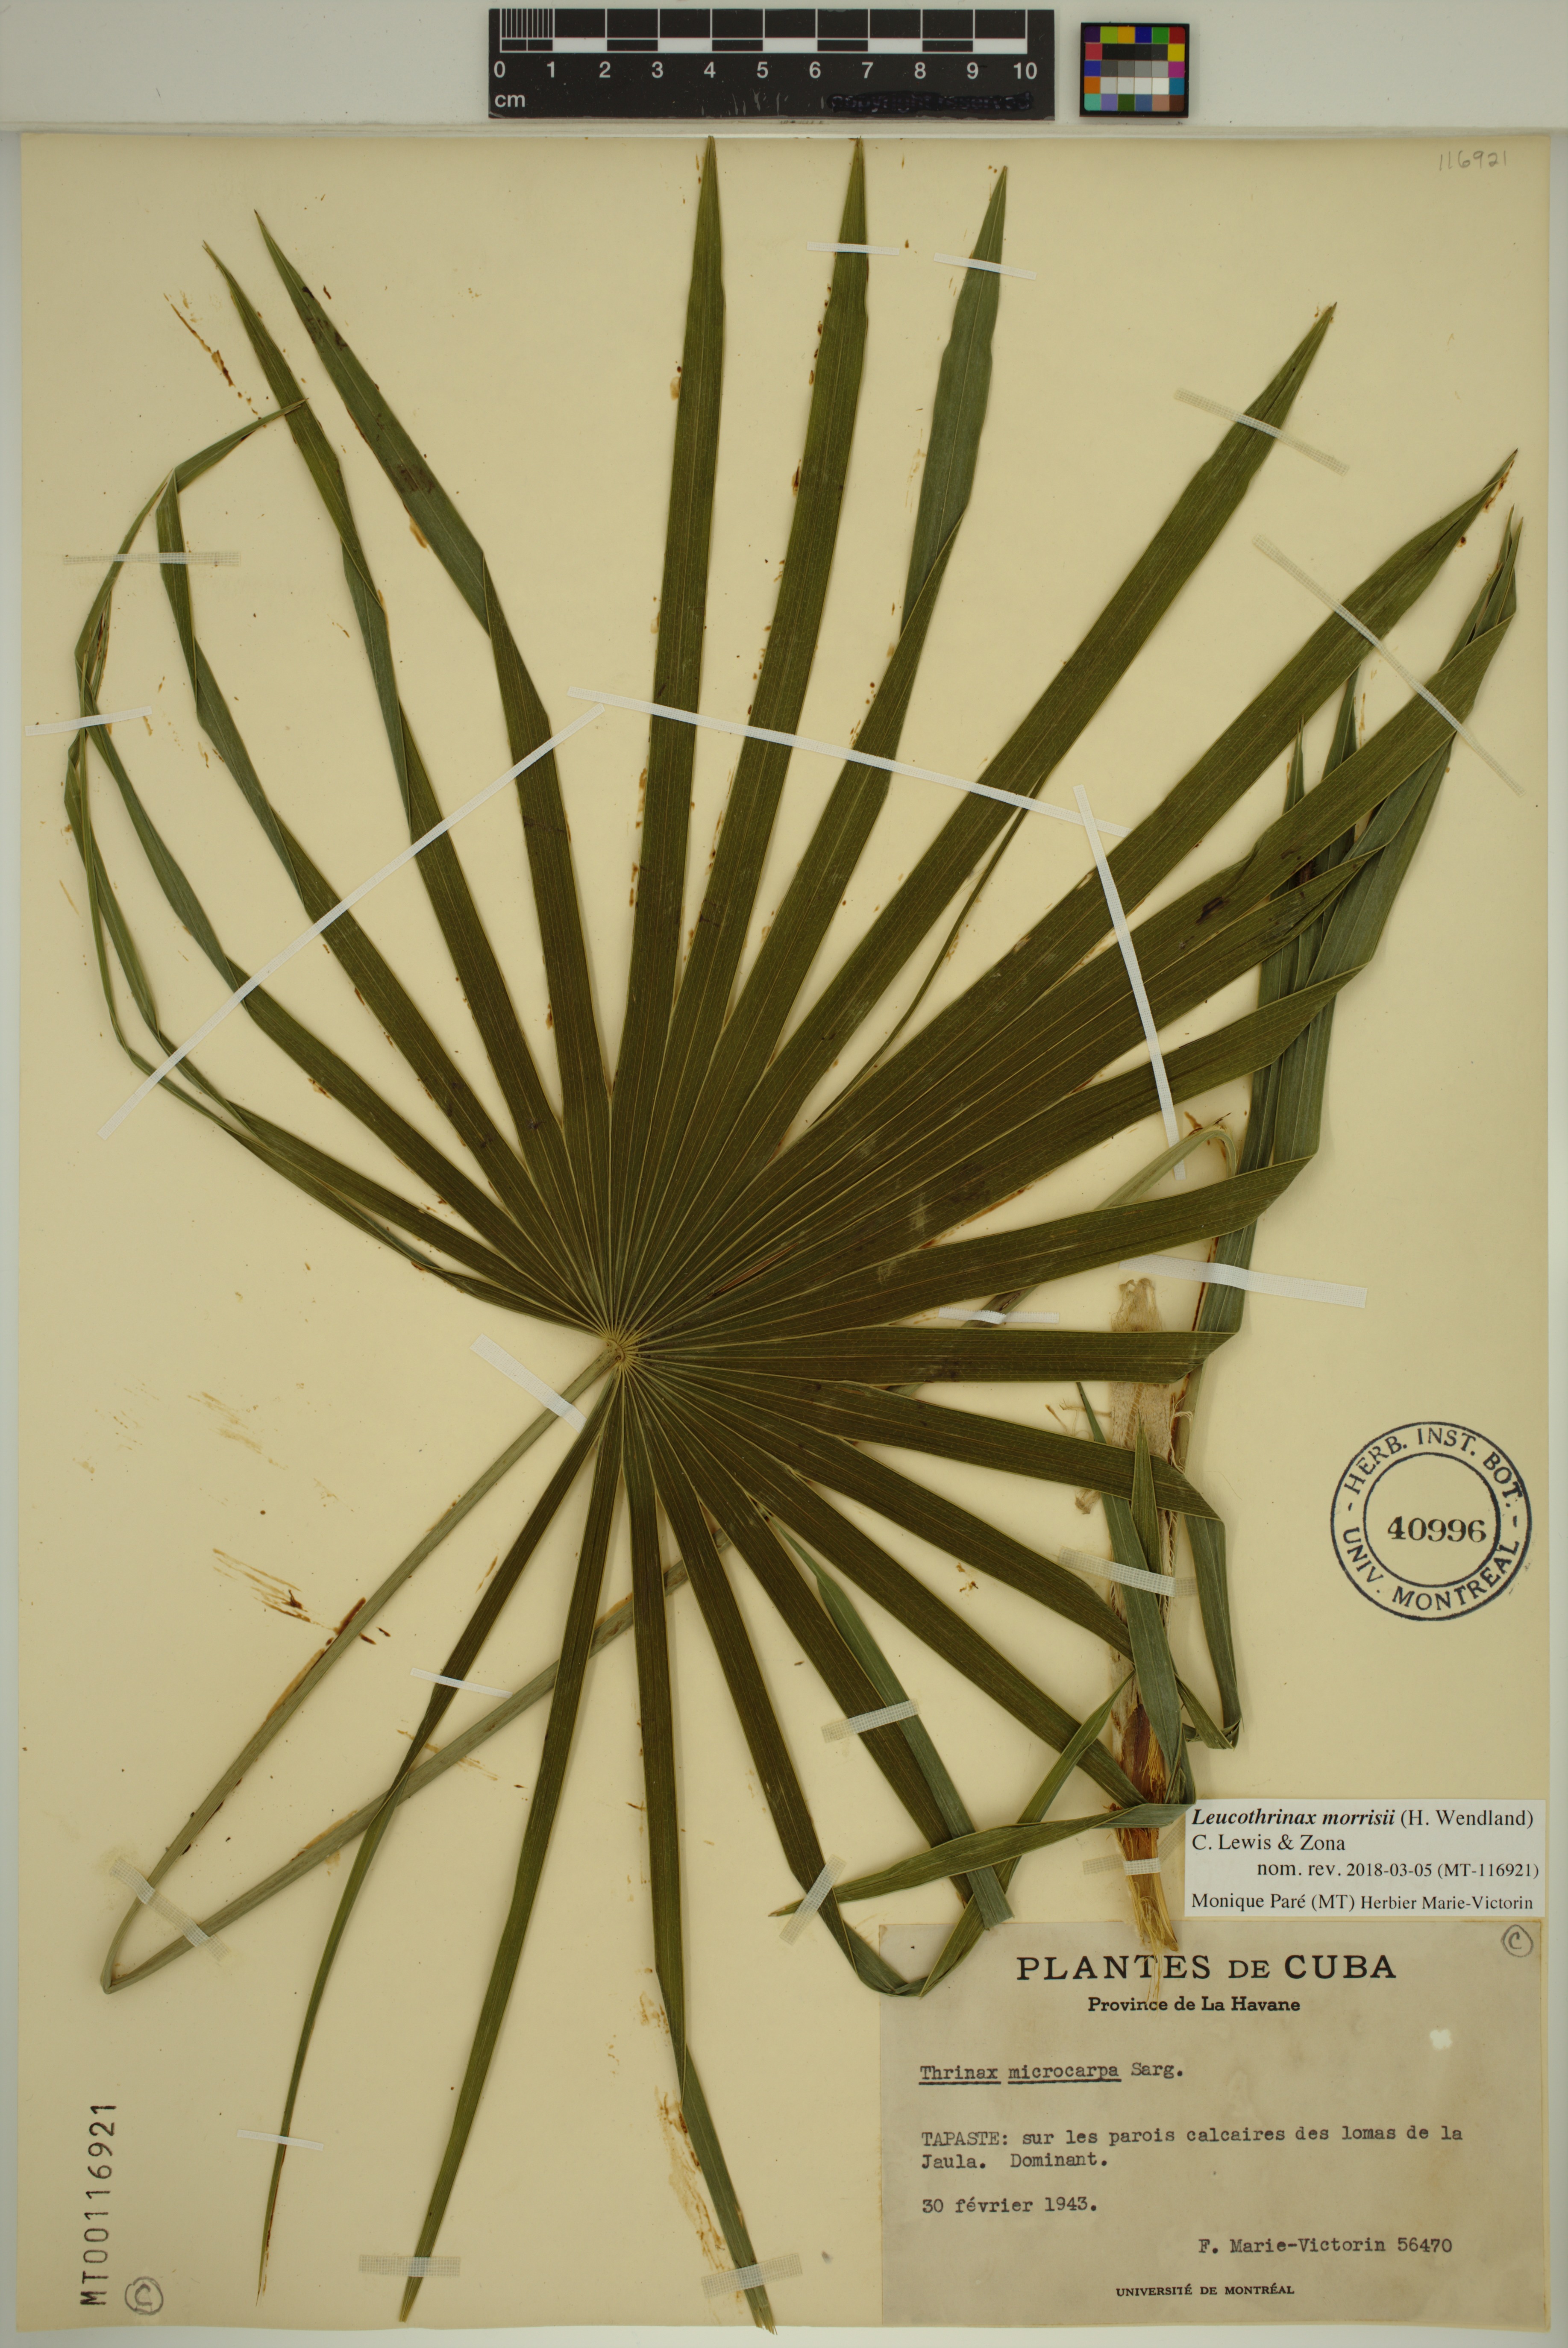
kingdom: Plantae
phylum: Tracheophyta
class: Liliopsida
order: Arecales
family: Arecaceae
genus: Leucothrinax
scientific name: Leucothrinax morrisii
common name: Key palm
